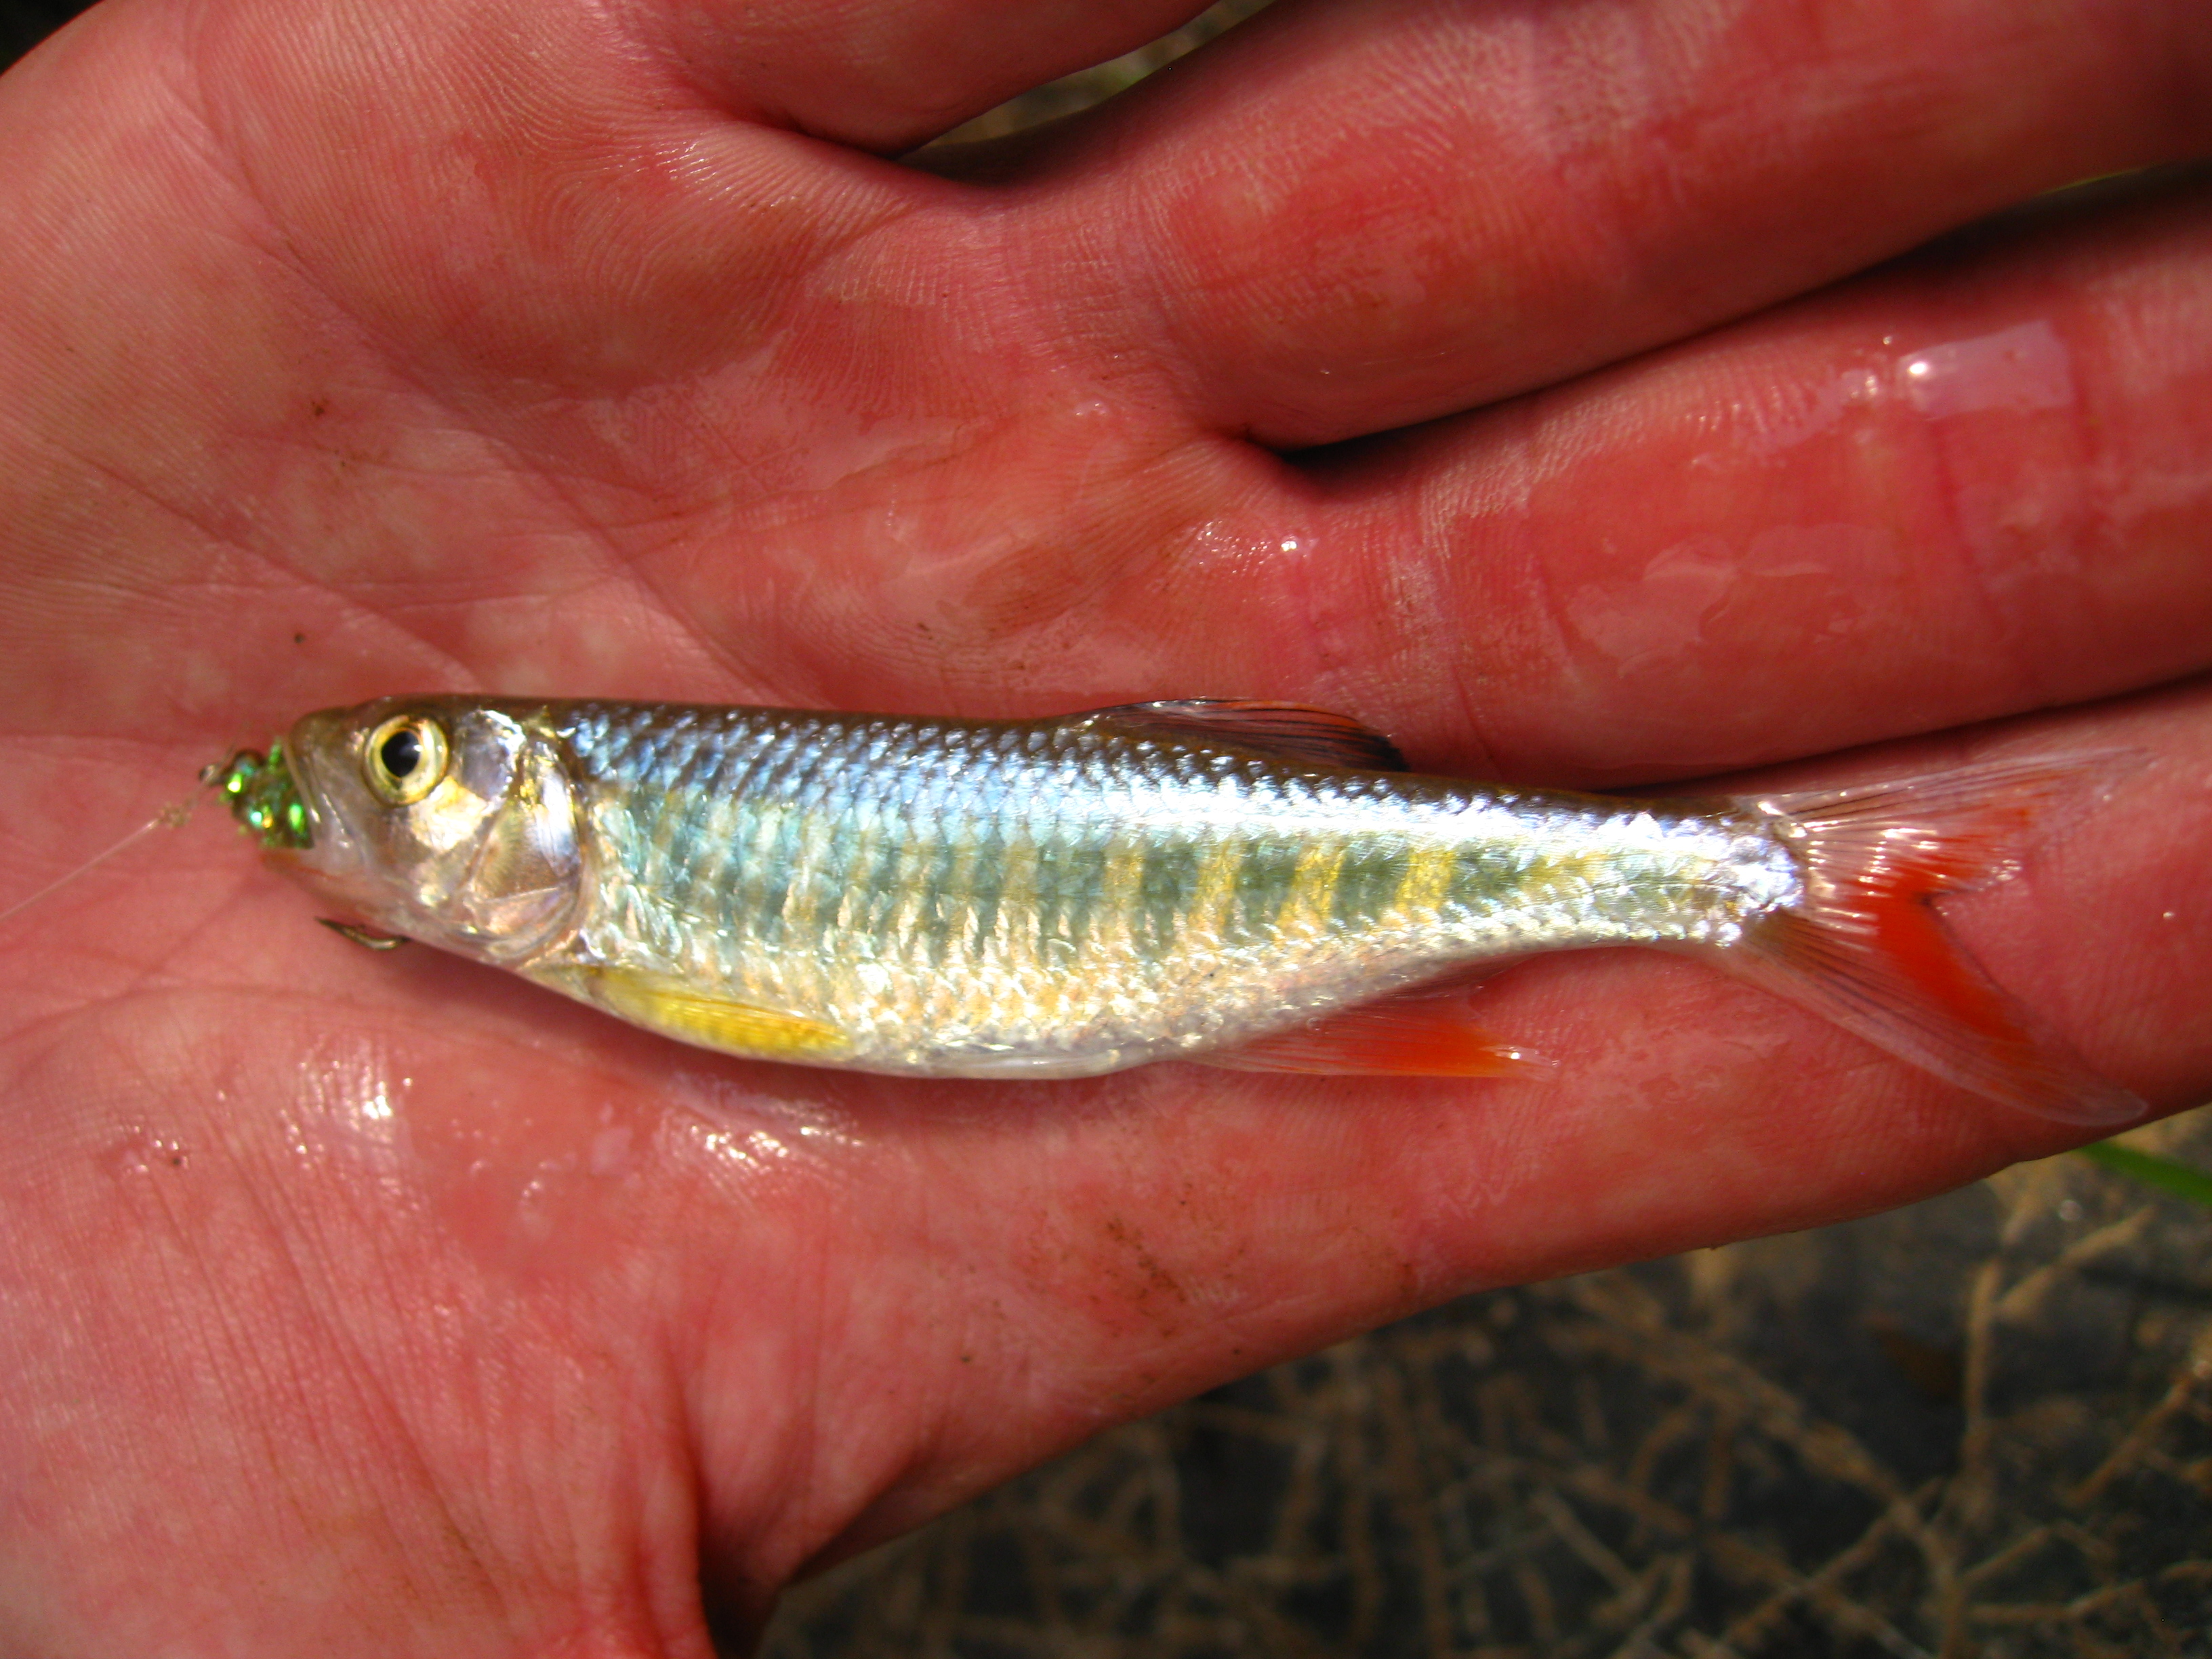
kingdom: Animalia
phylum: Chordata
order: Cypriniformes
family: Cyprinidae
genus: Opsaridium
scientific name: Opsaridium zambezense
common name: Barred minnow
